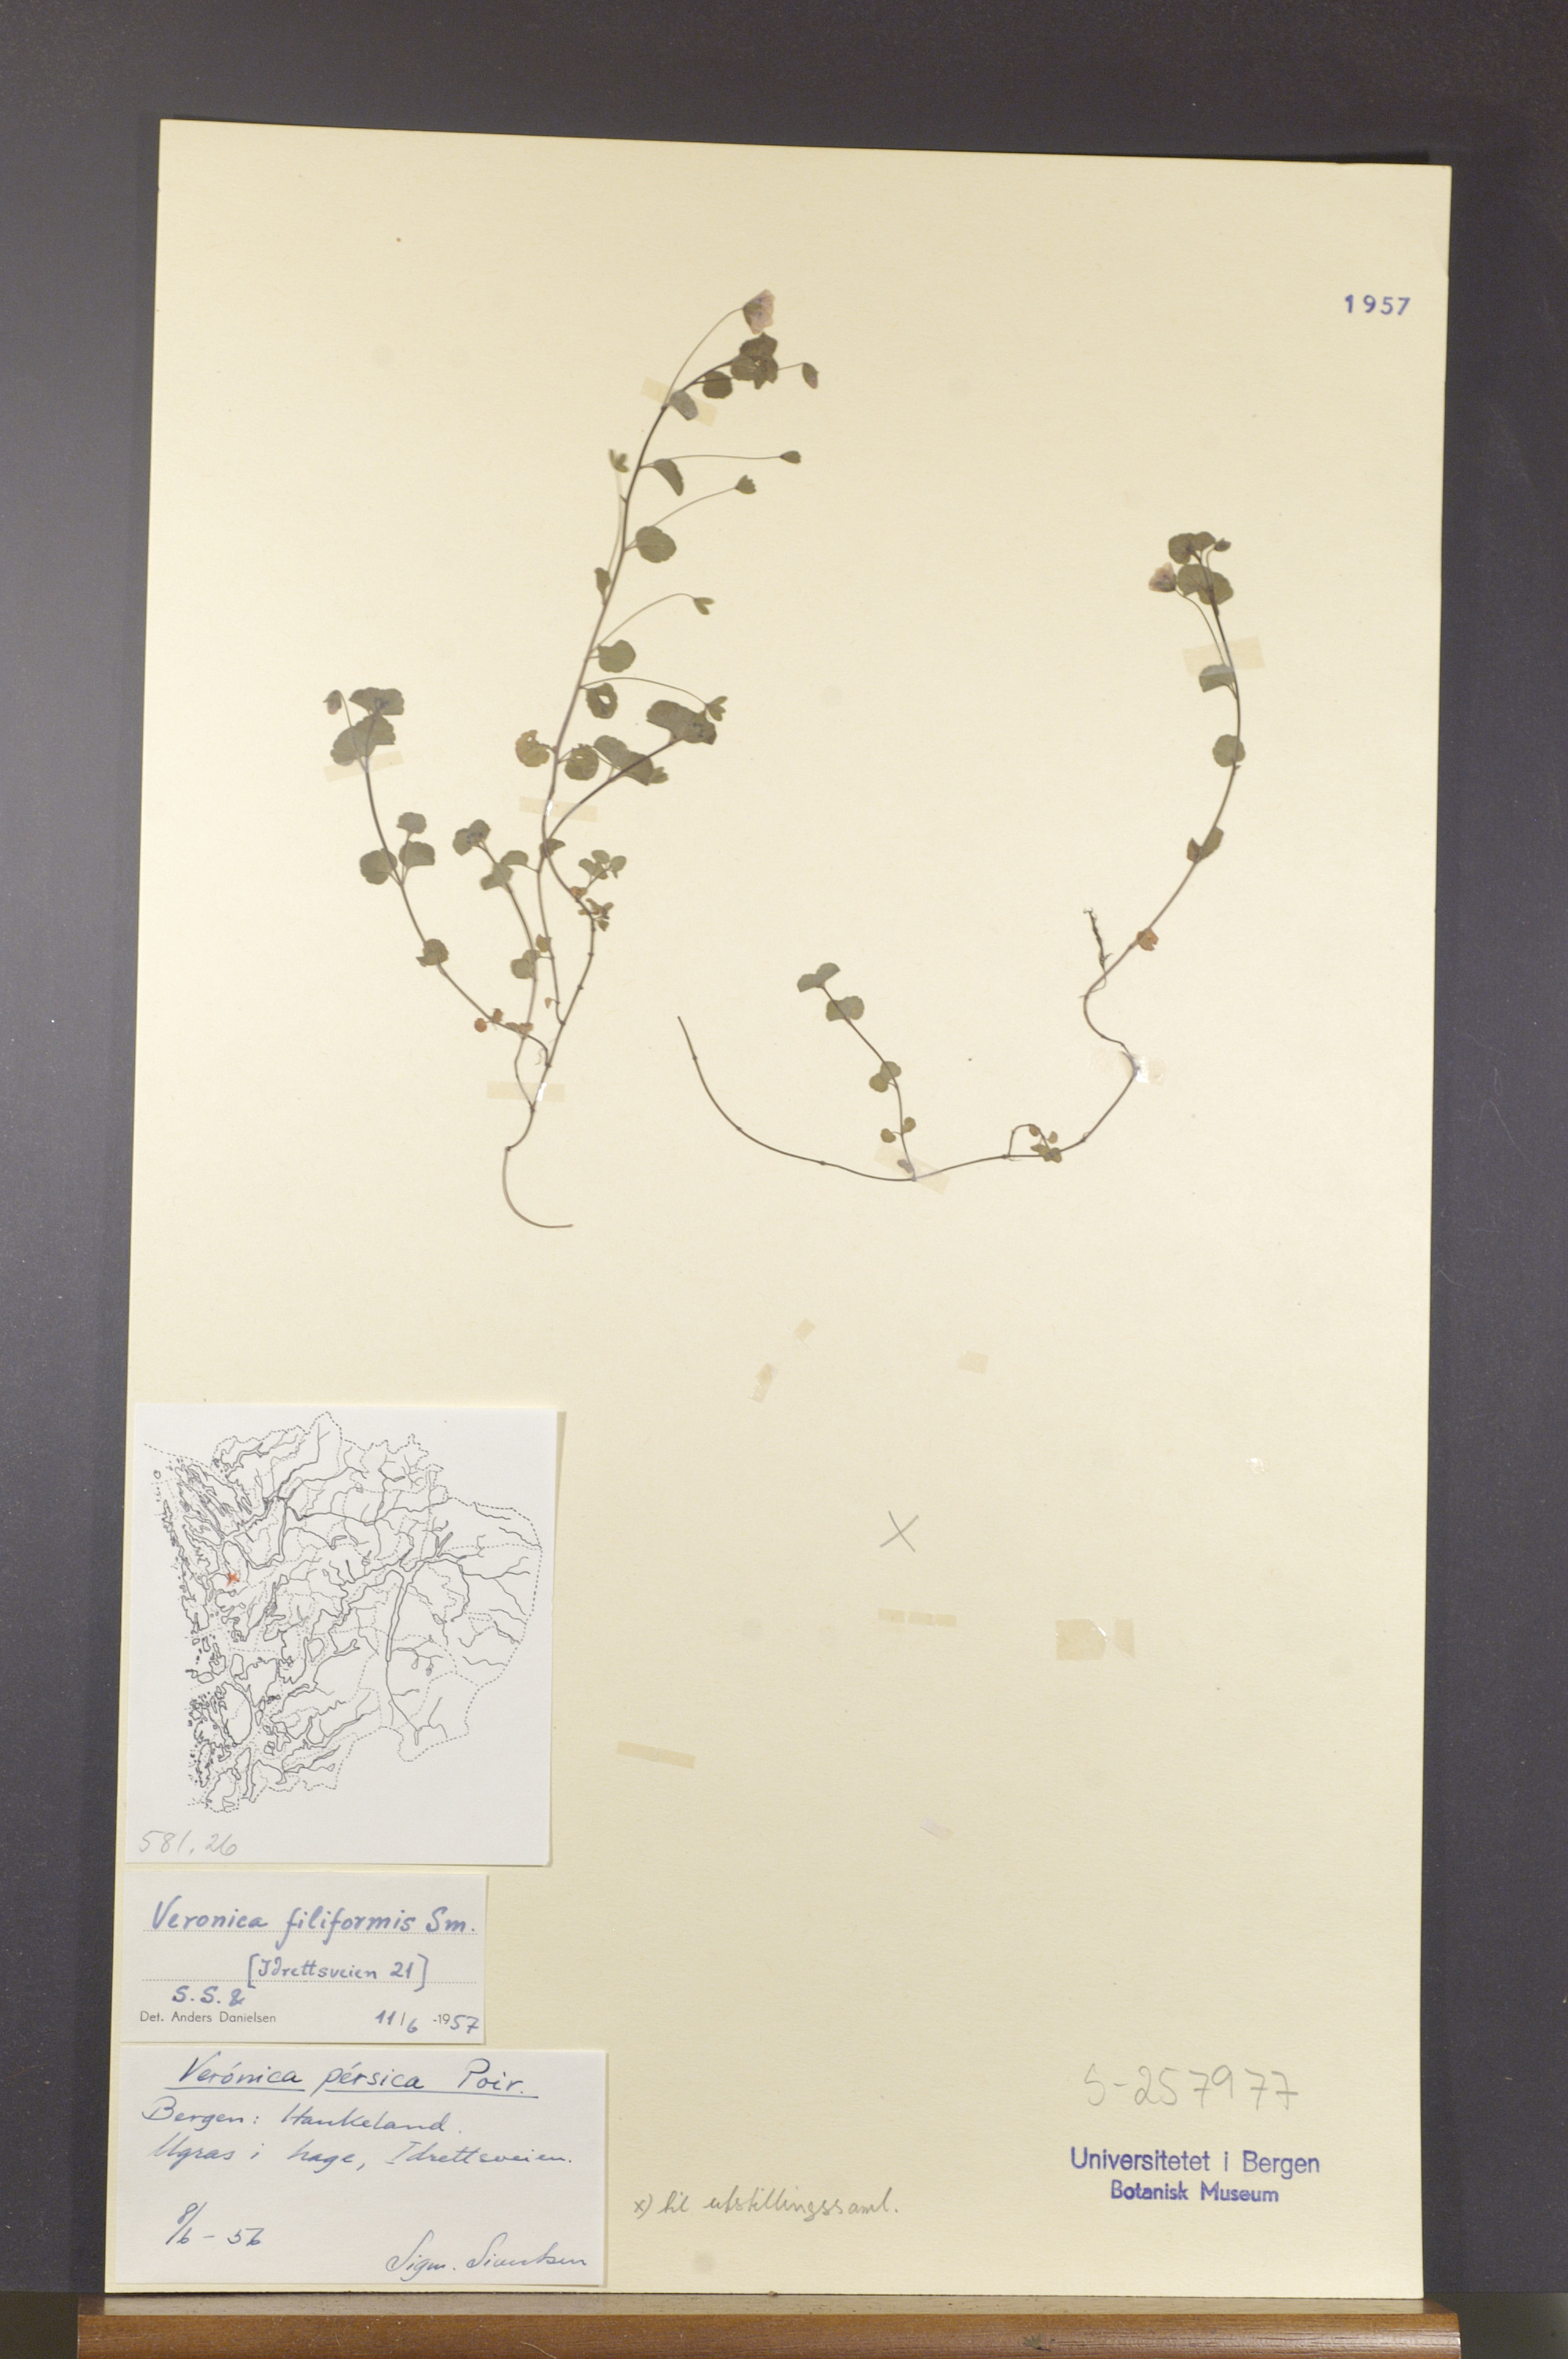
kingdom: Plantae
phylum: Tracheophyta
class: Magnoliopsida
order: Lamiales
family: Plantaginaceae
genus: Veronica
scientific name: Veronica filiformis
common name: Slender speedwell
